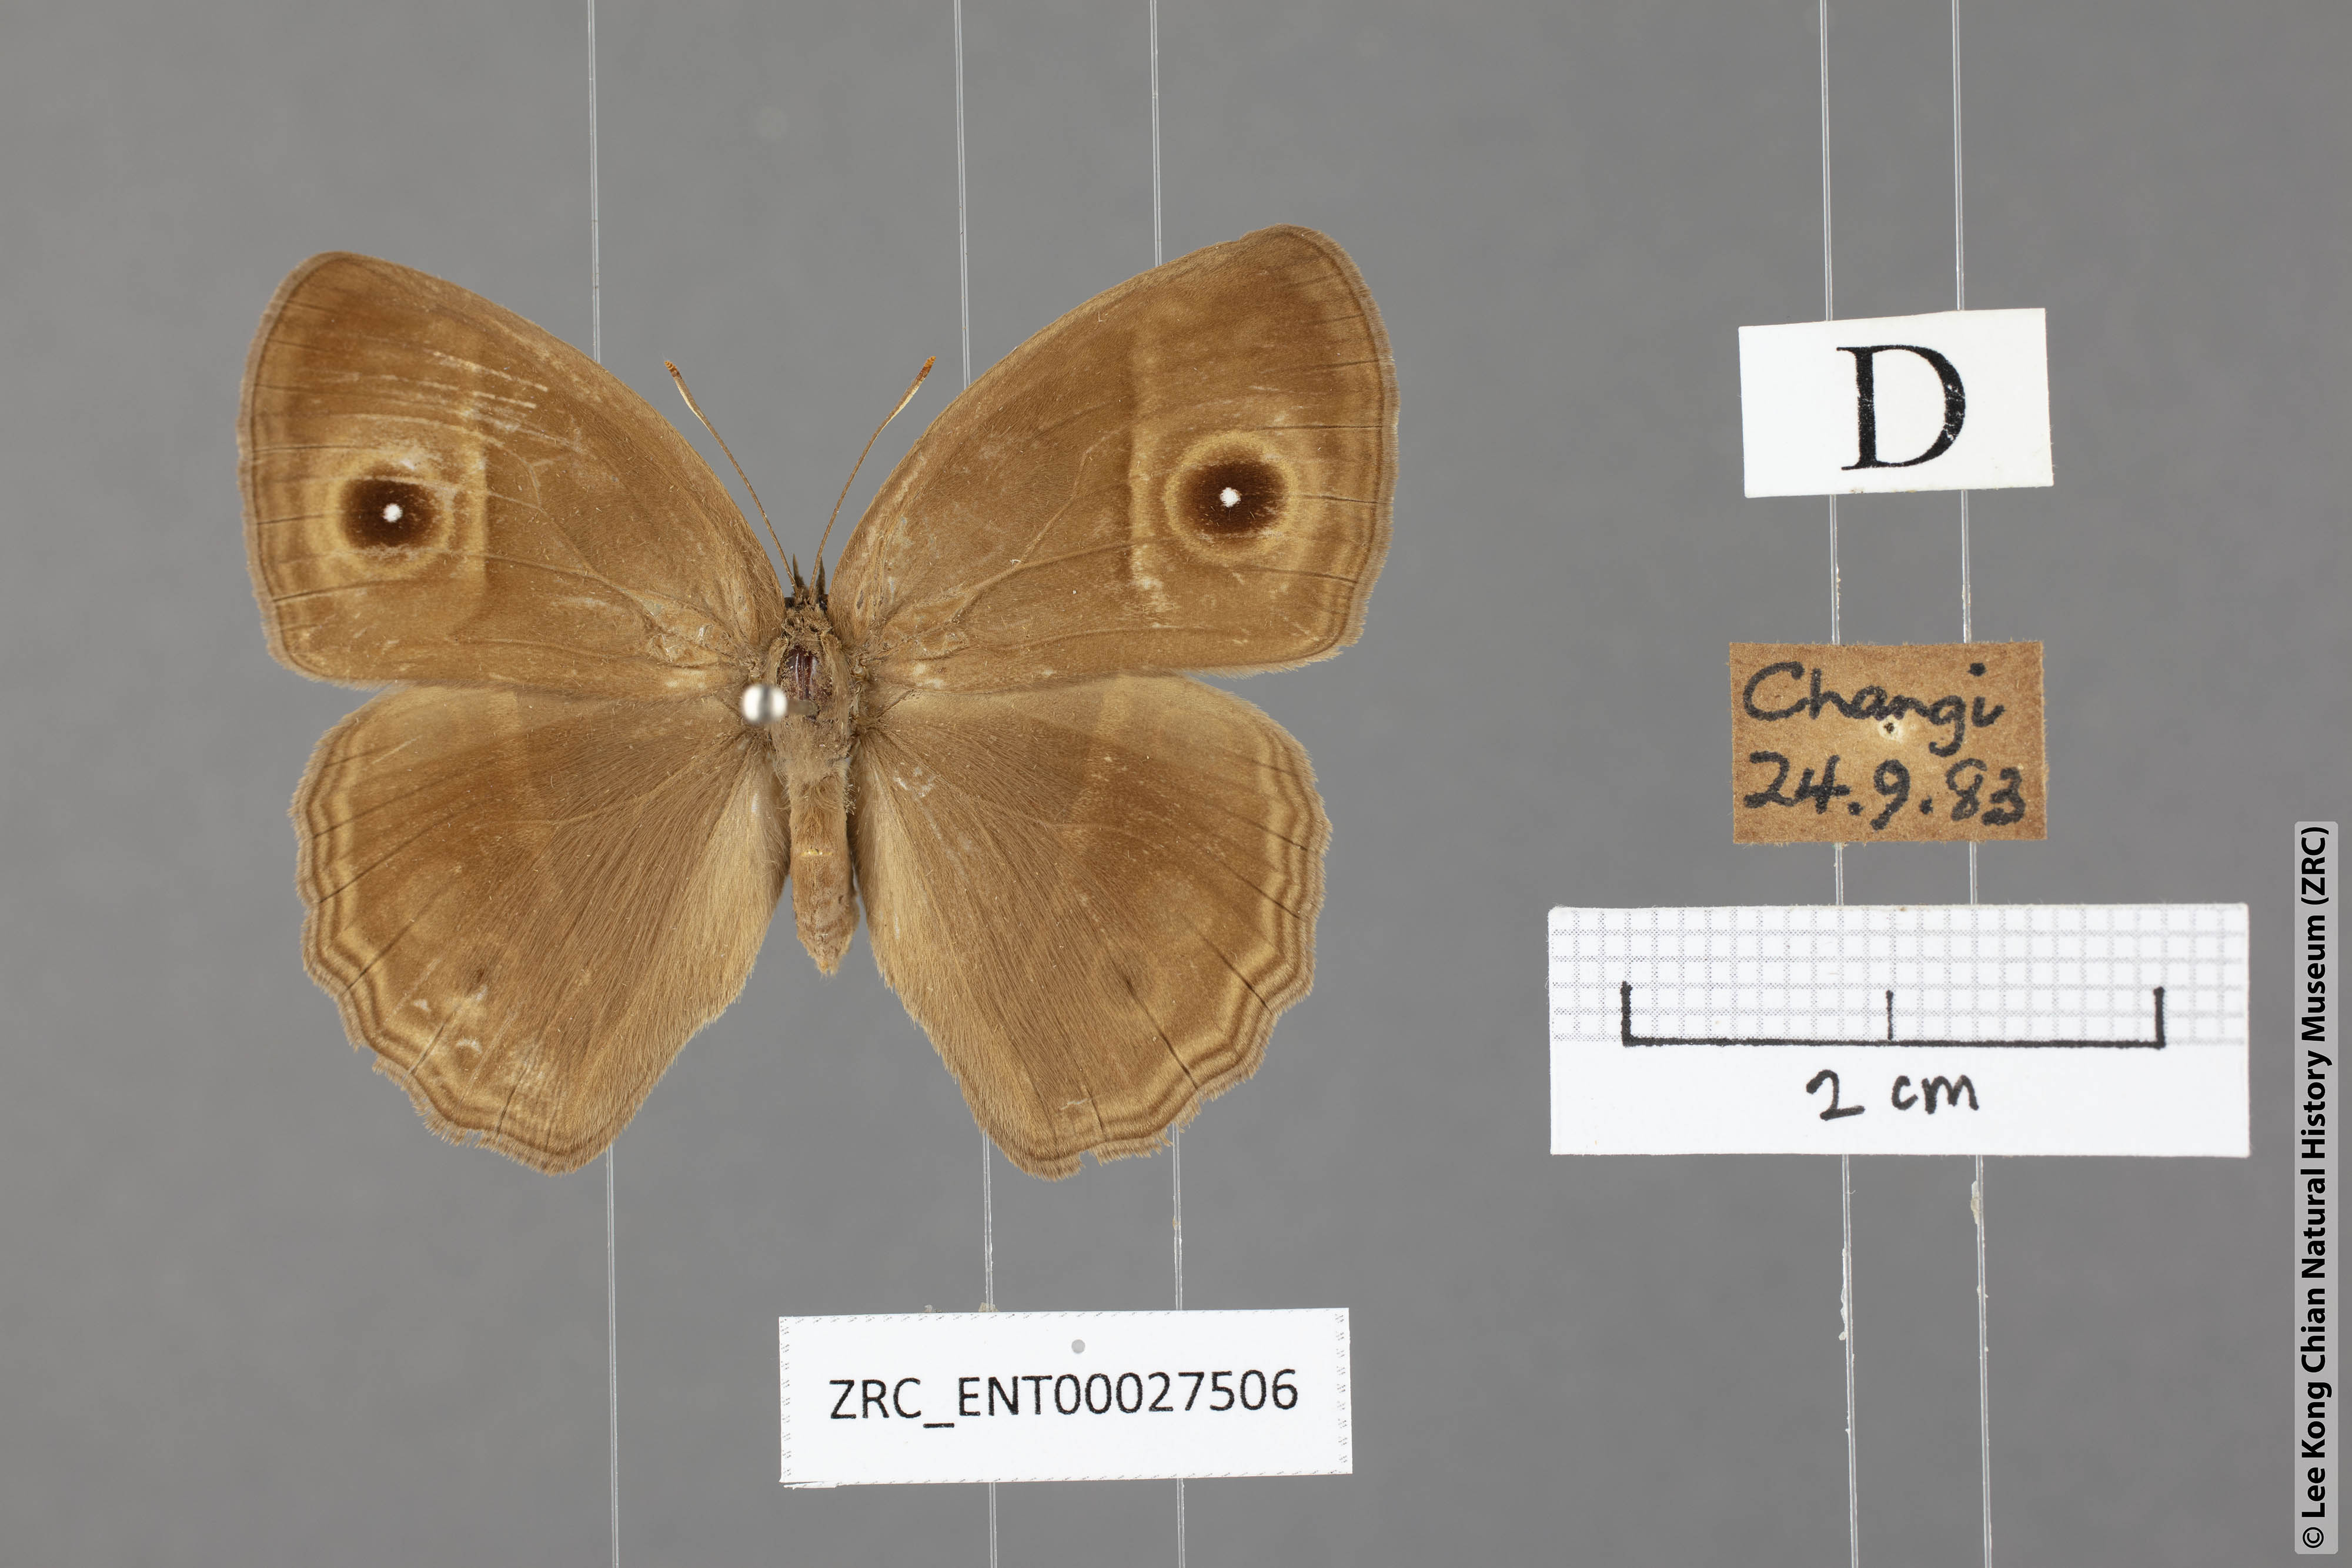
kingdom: Animalia
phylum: Arthropoda
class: Insecta
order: Lepidoptera
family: Nymphalidae
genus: Mycalesis
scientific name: Mycalesis mineus
